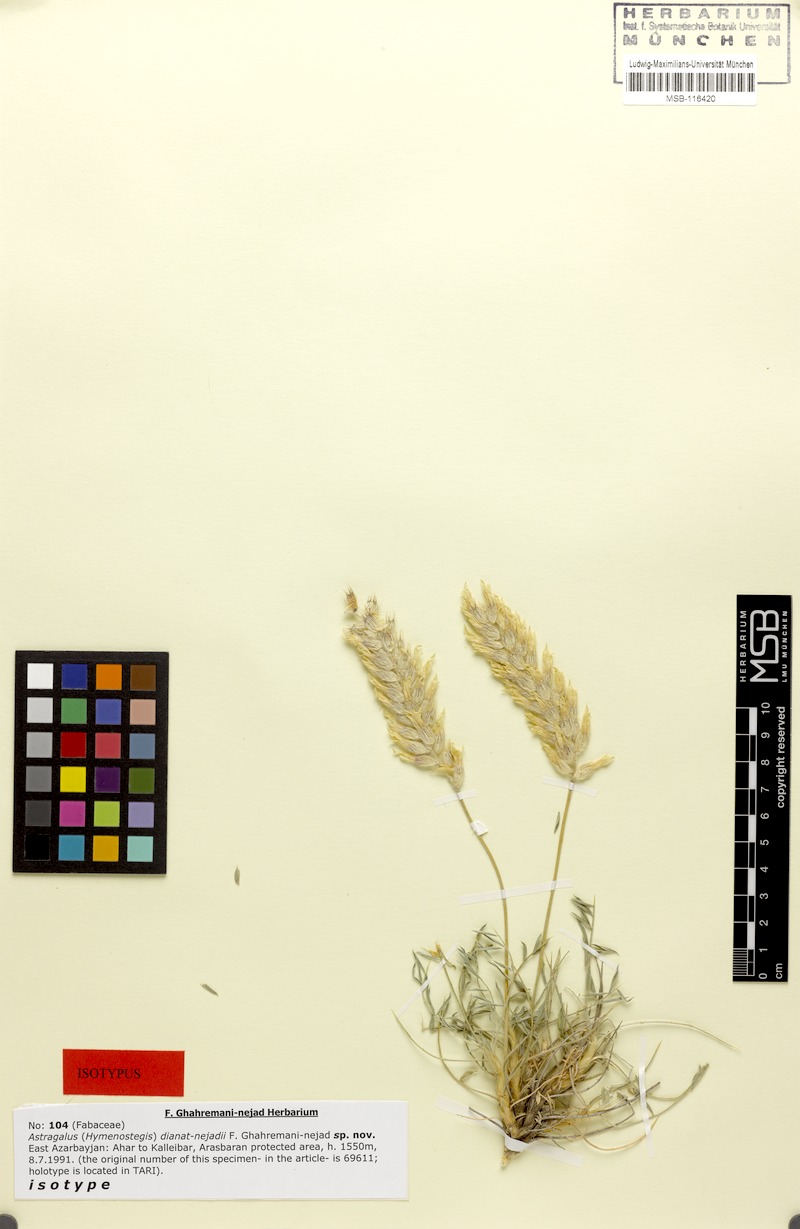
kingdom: Plantae
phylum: Tracheophyta
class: Magnoliopsida
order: Fabales
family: Fabaceae
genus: Astragalus
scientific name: Astragalus dianat-nejadii
